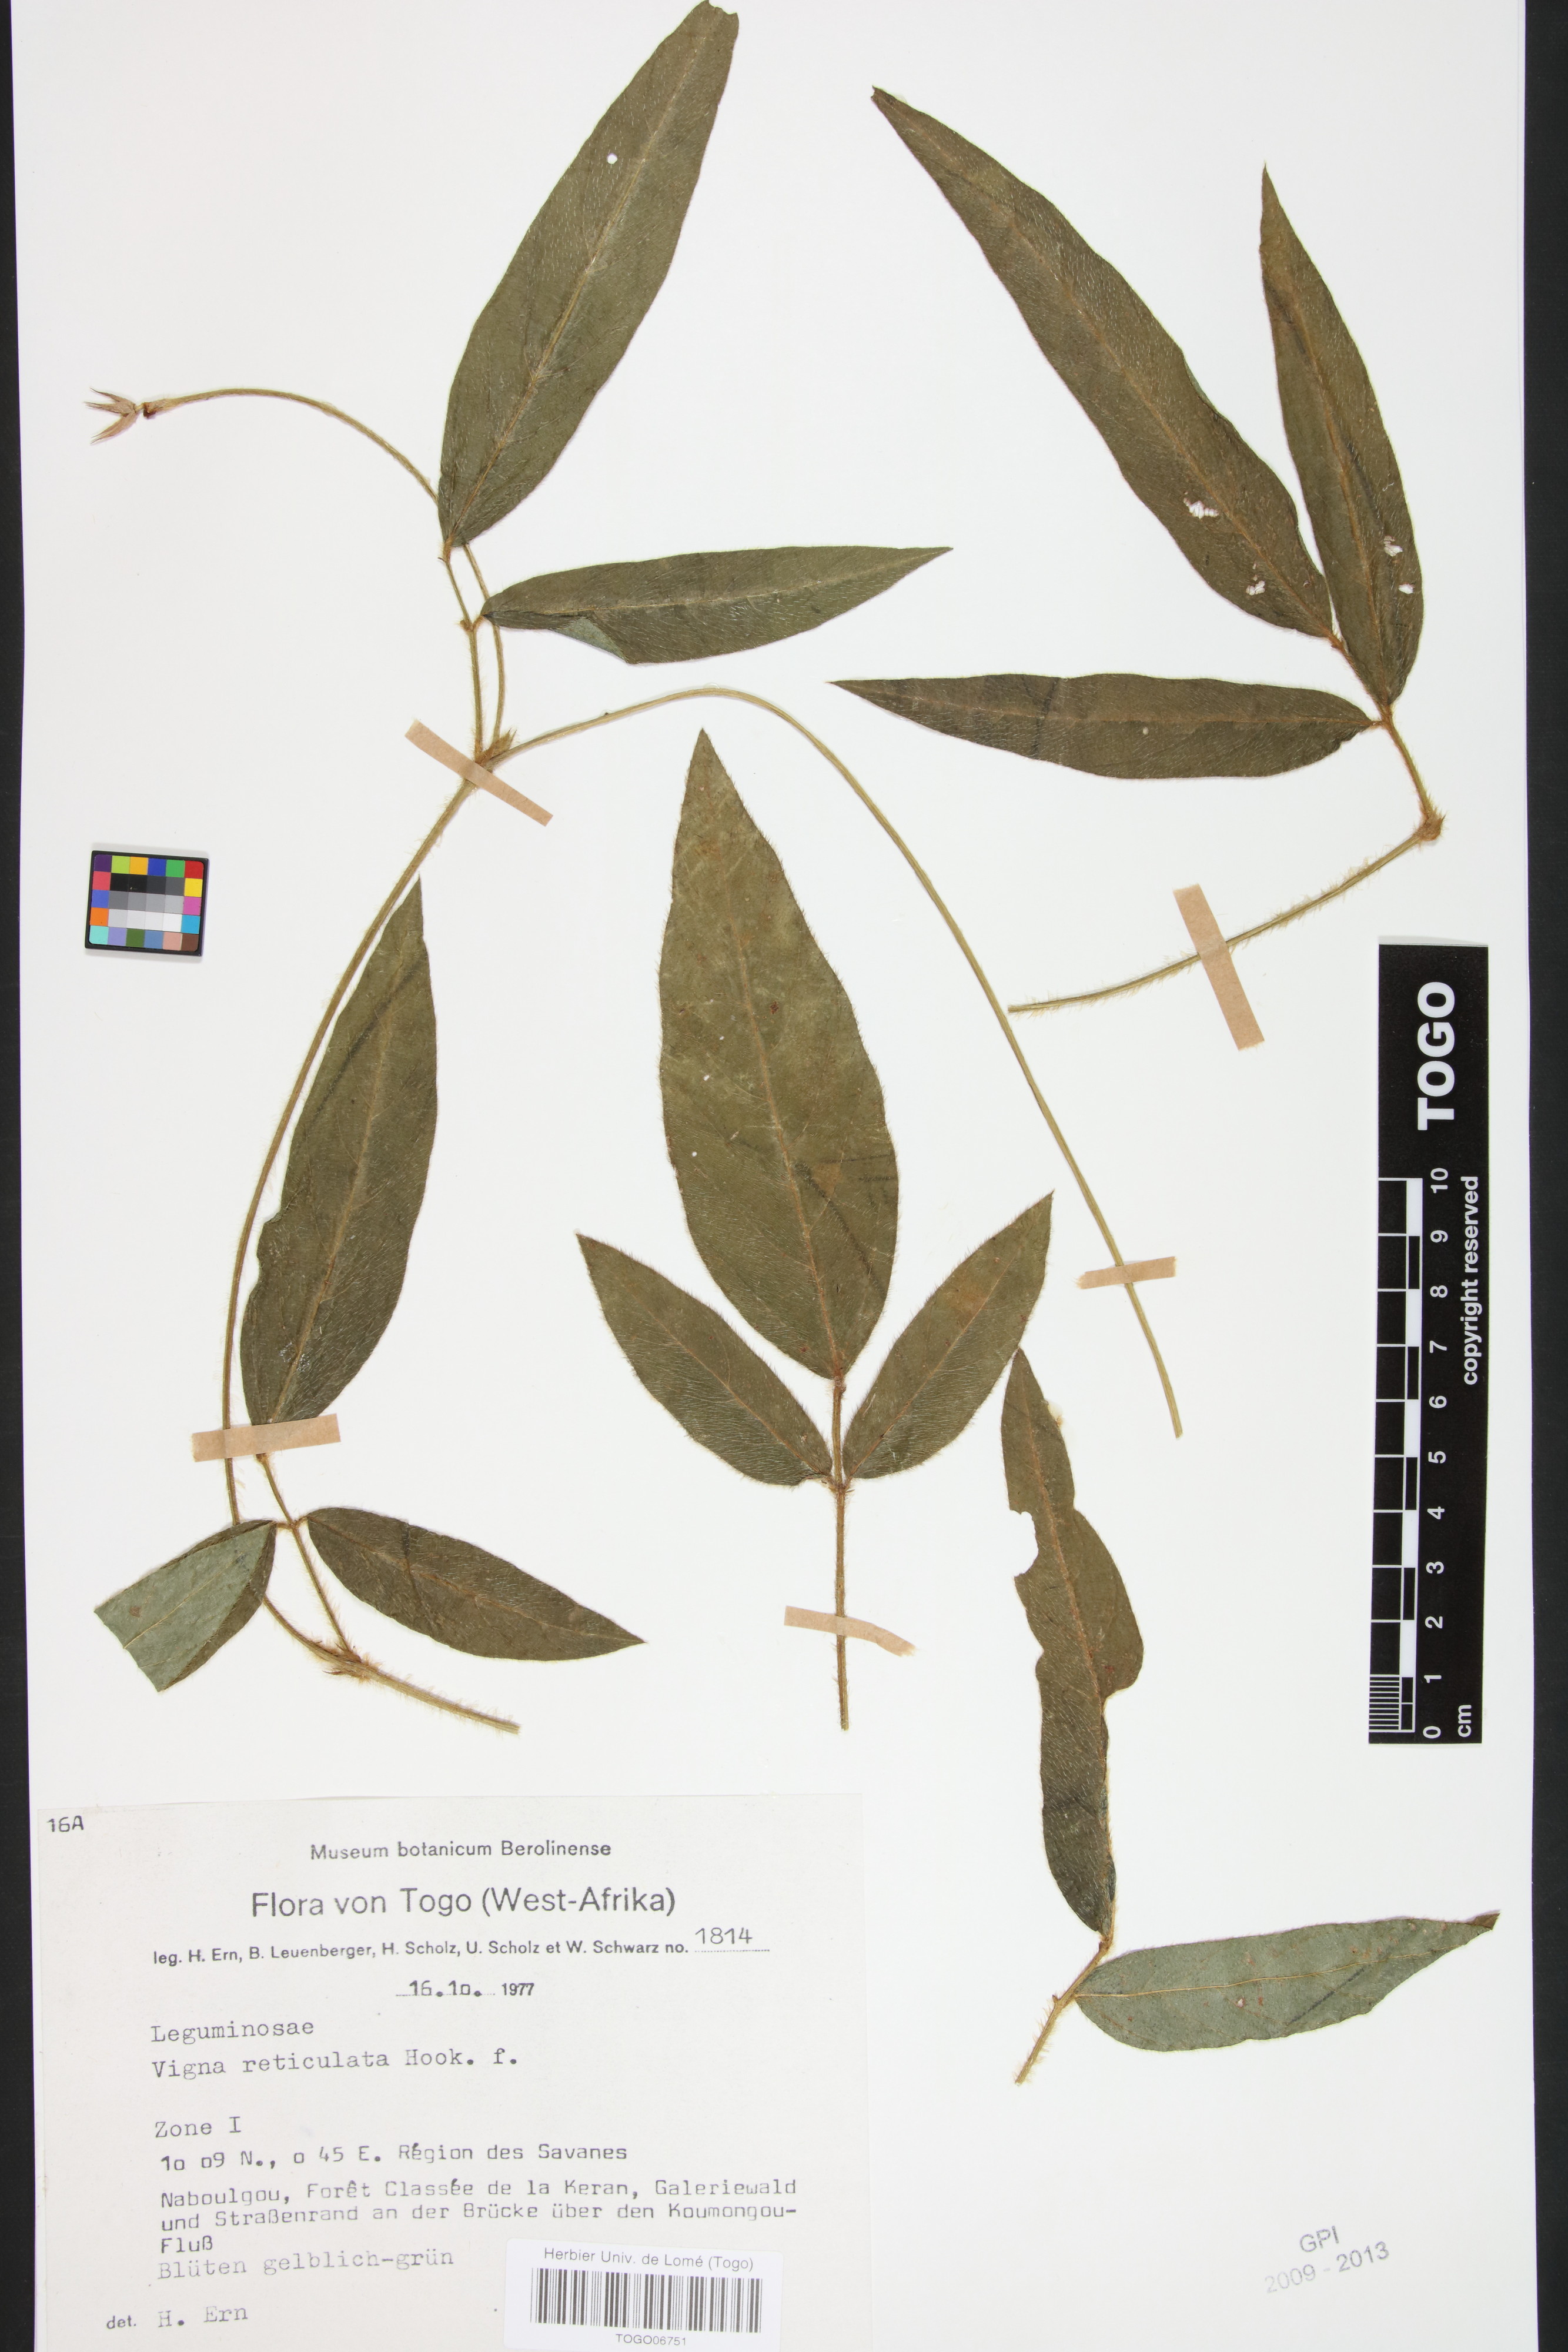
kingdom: Plantae
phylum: Tracheophyta
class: Magnoliopsida
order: Fabales
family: Fabaceae
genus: Vigna
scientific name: Vigna reticulata
